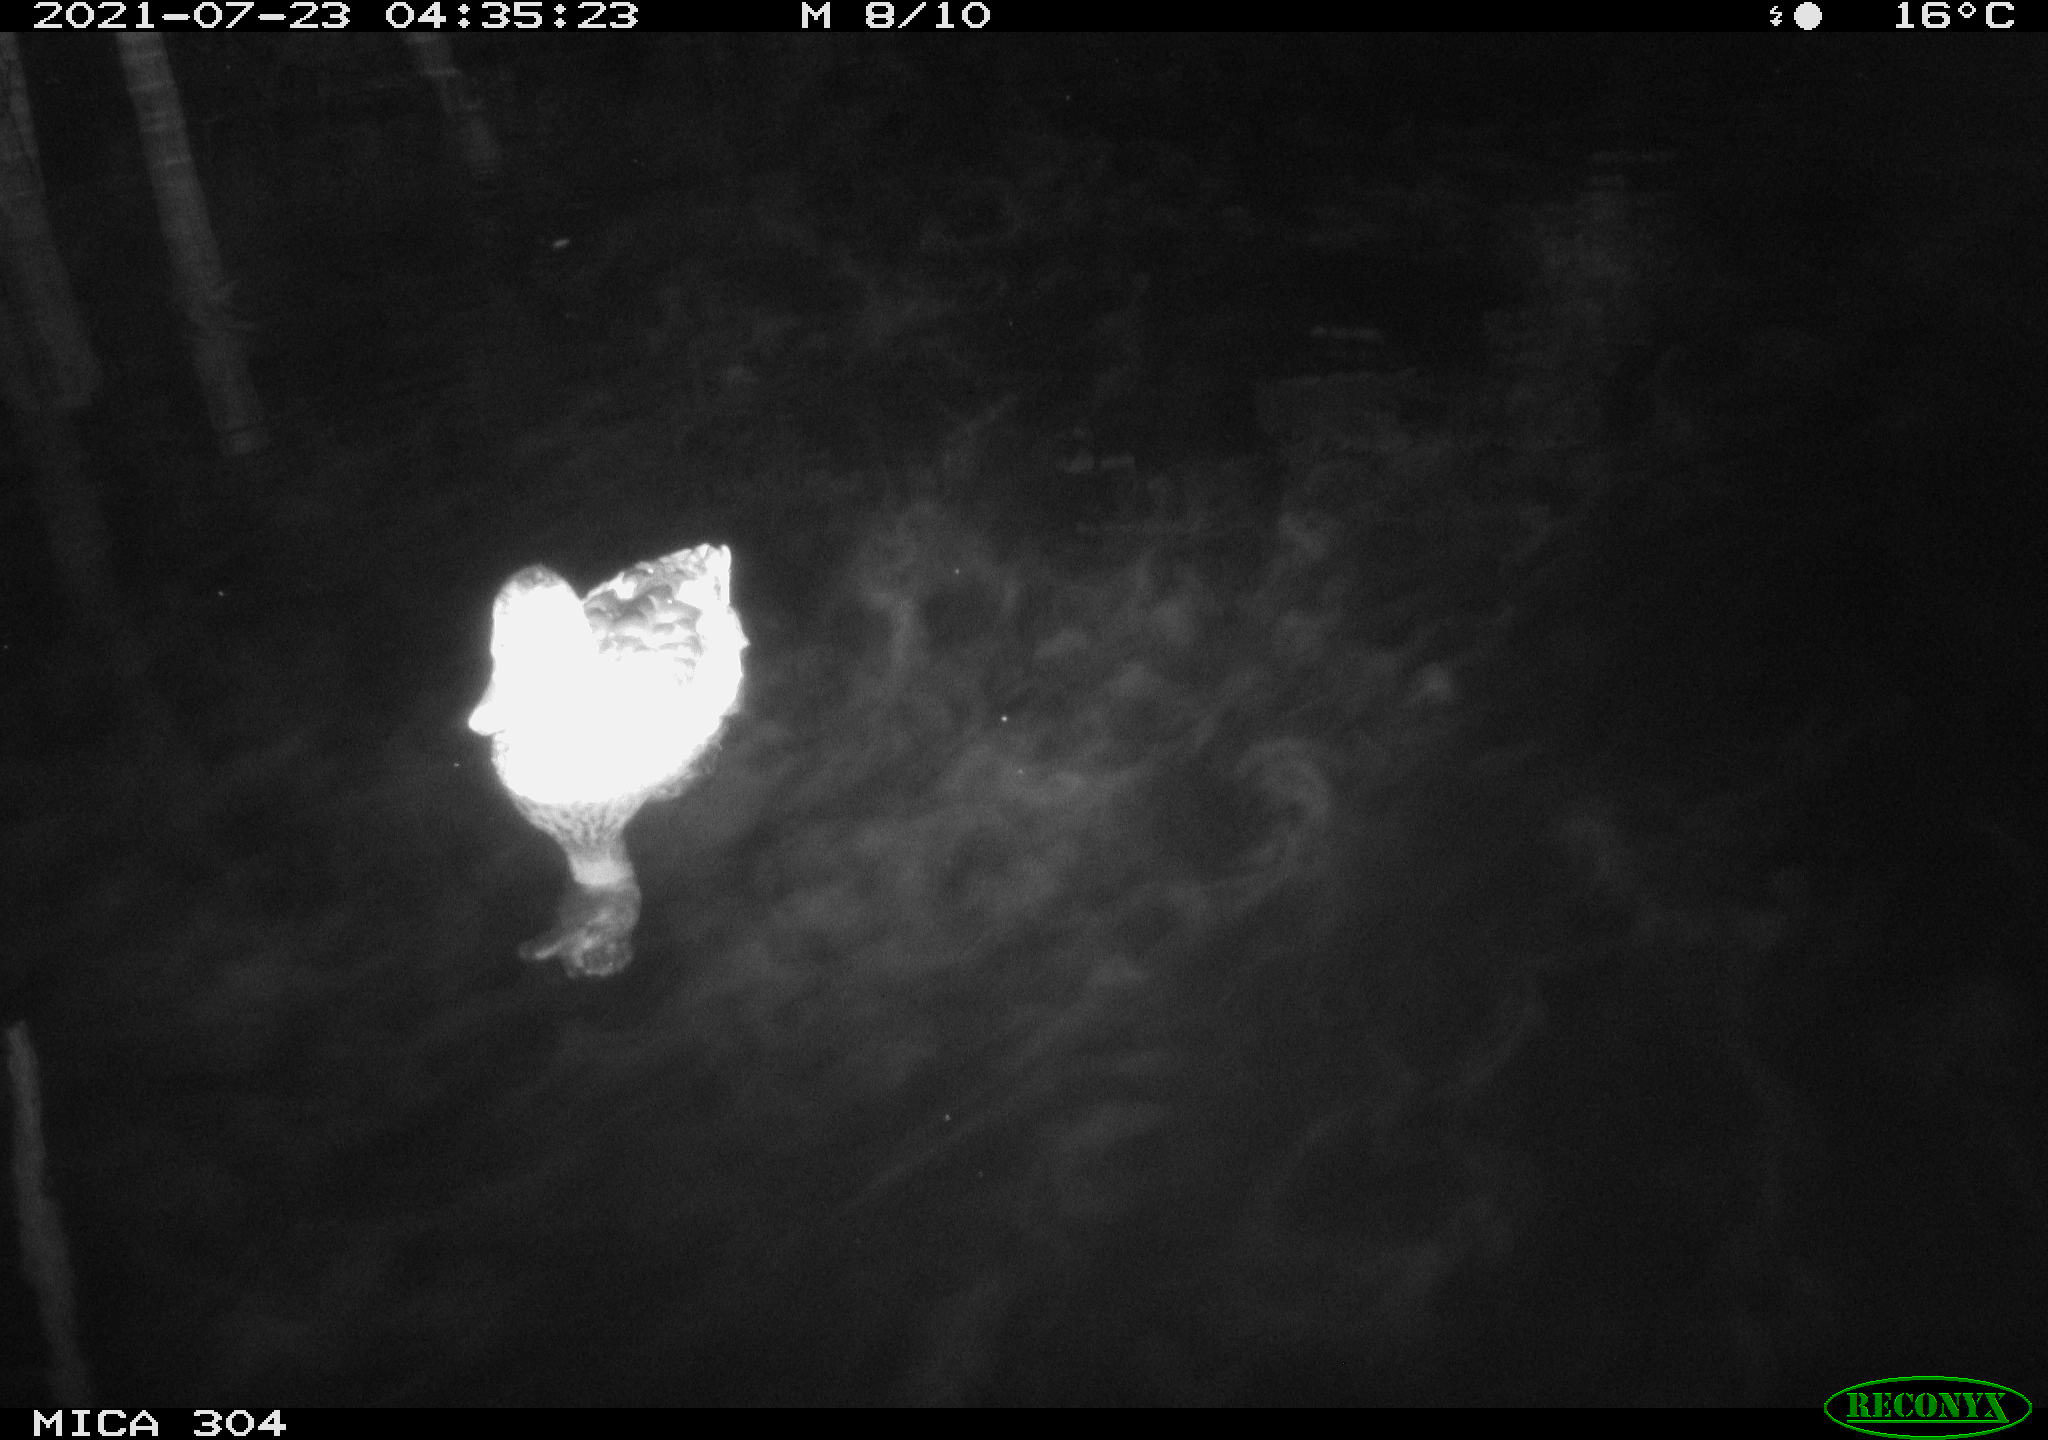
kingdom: Animalia
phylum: Chordata
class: Aves
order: Anseriformes
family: Anatidae
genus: Mareca
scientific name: Mareca strepera
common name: Gadwall
